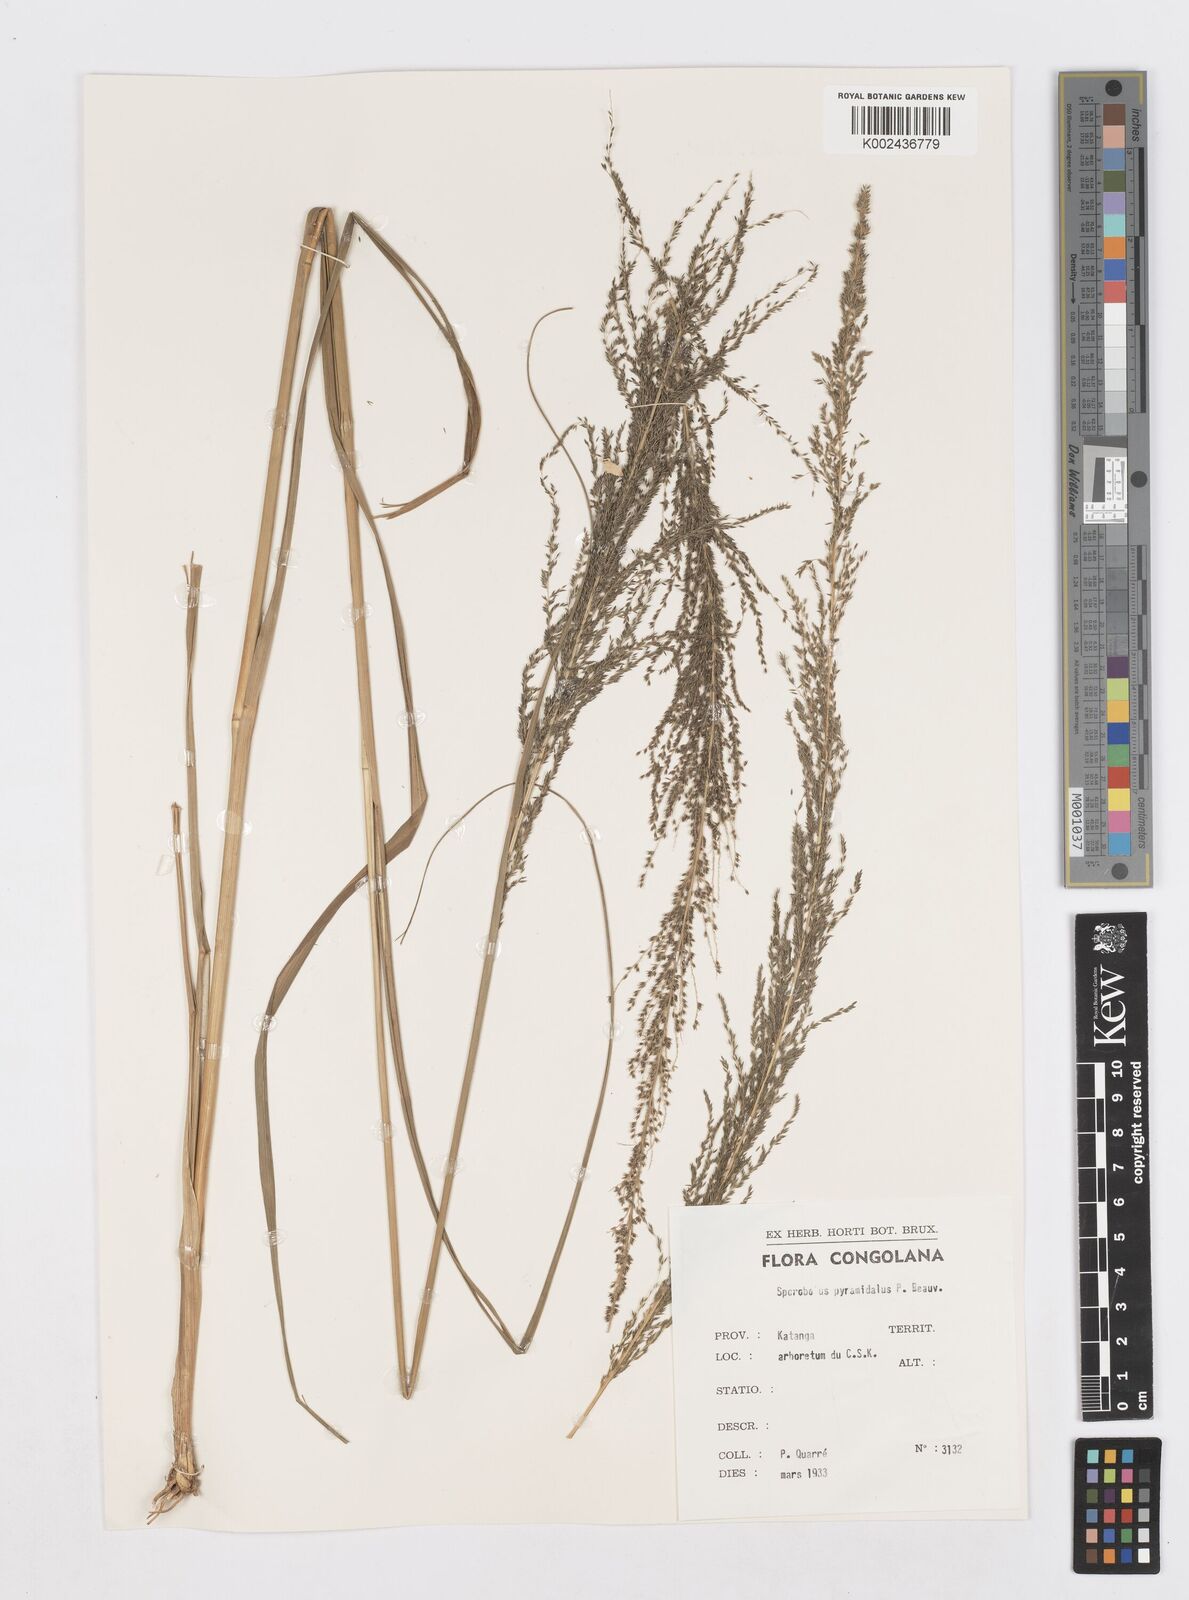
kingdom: Plantae
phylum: Tracheophyta
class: Liliopsida
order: Poales
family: Poaceae
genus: Sporobolus
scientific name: Sporobolus pyramidalis
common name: West indian dropseed
